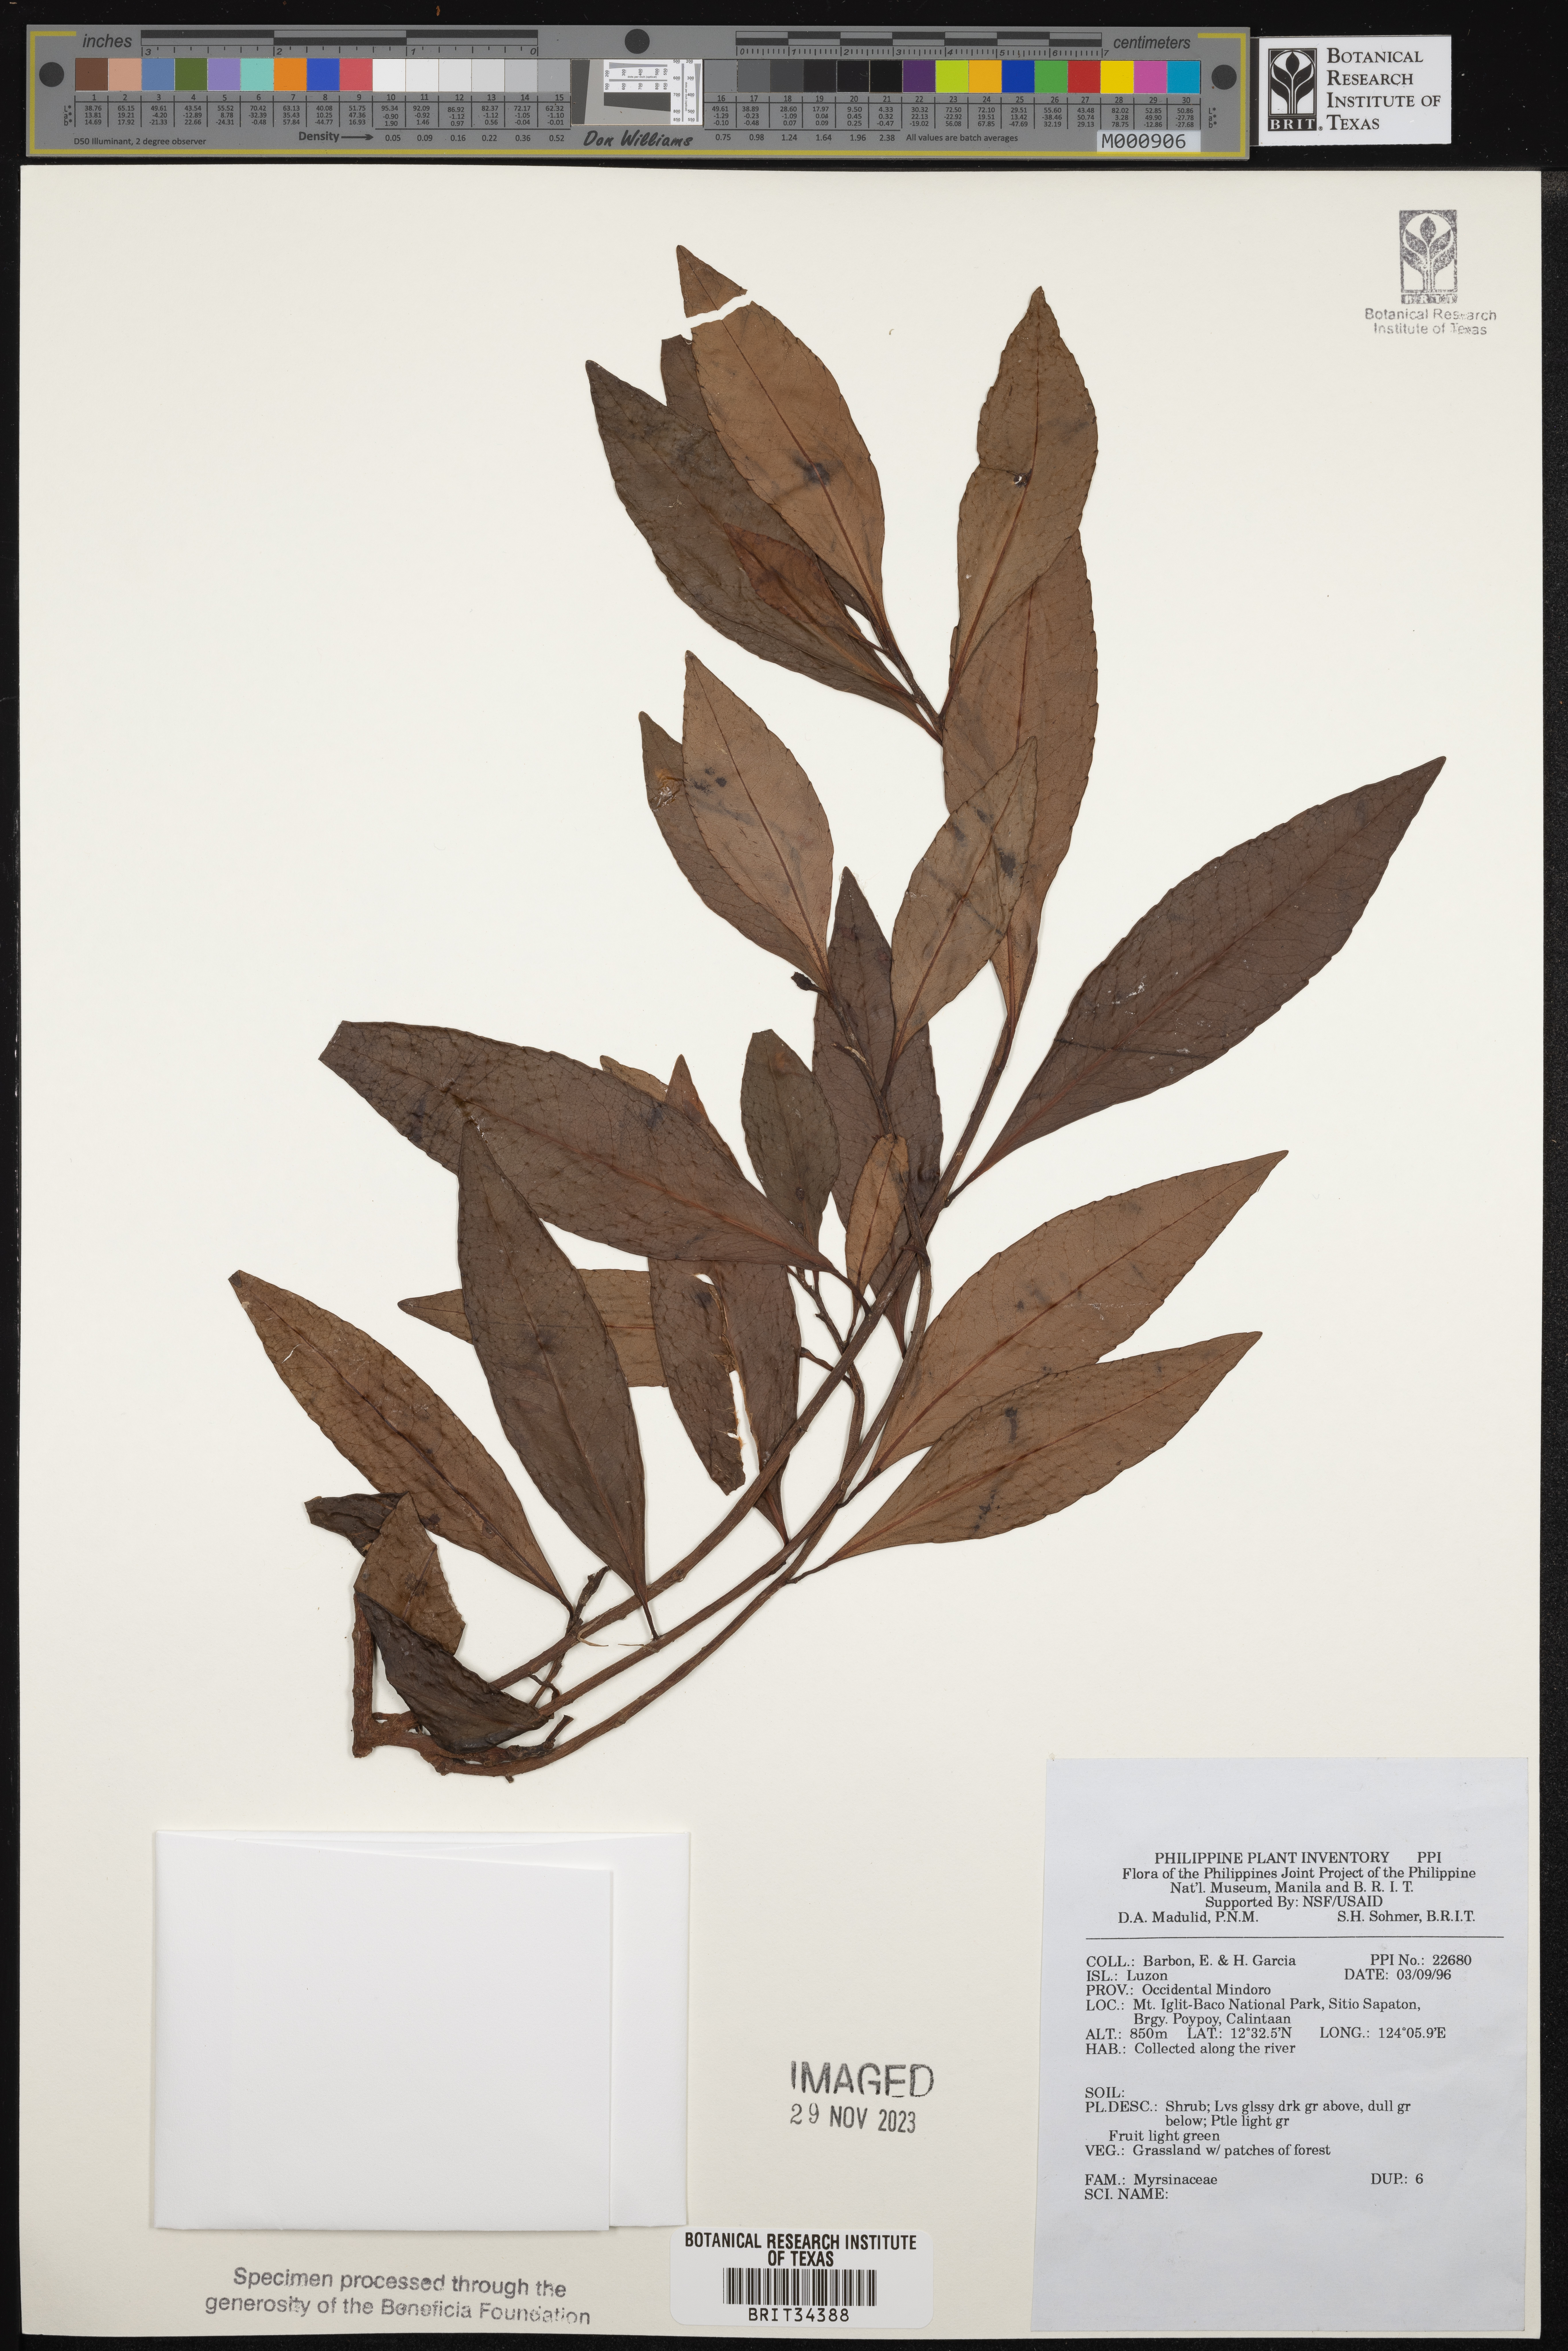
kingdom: Plantae
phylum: Tracheophyta
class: Magnoliopsida
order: Ericales
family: Primulaceae
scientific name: Primulaceae
